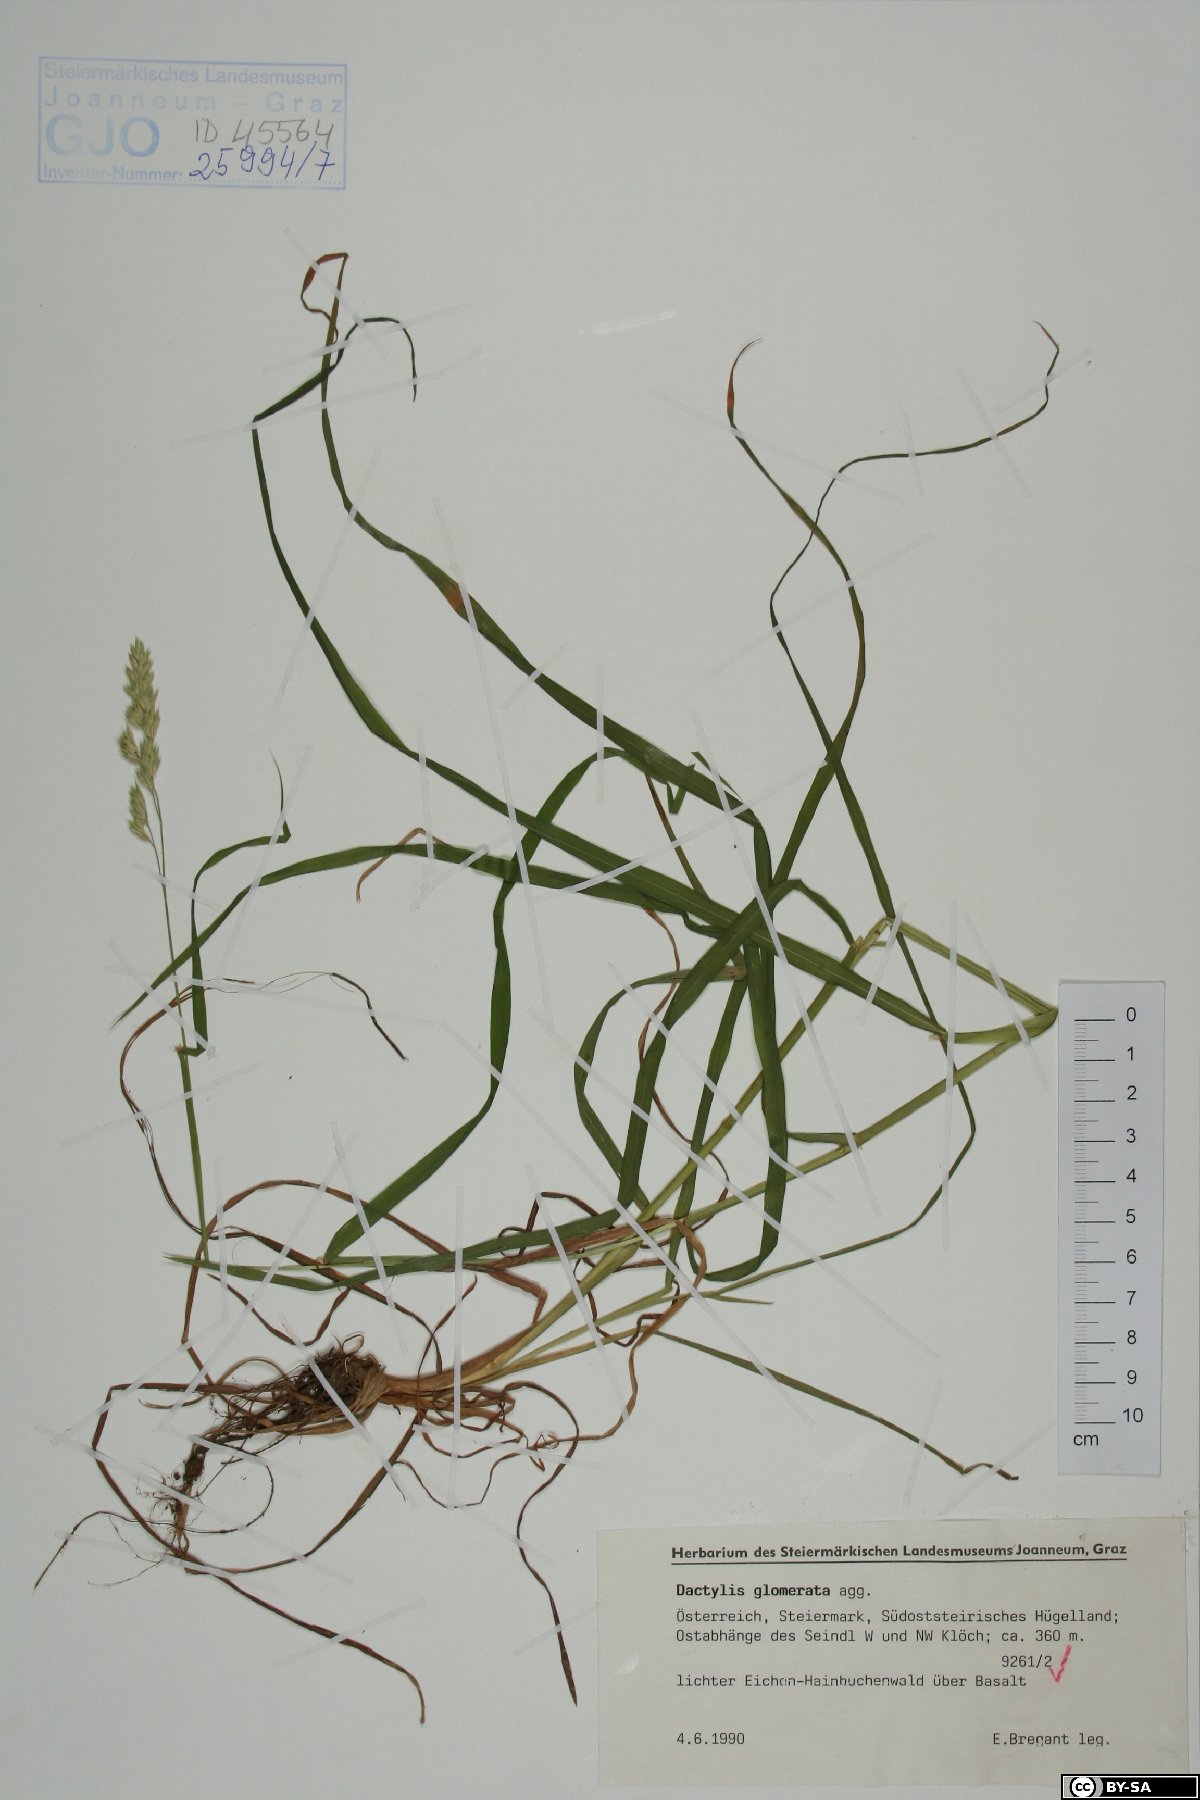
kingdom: Plantae
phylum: Tracheophyta
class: Liliopsida
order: Poales
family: Poaceae
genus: Dactylis
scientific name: Dactylis glomerata
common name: Orchardgrass
